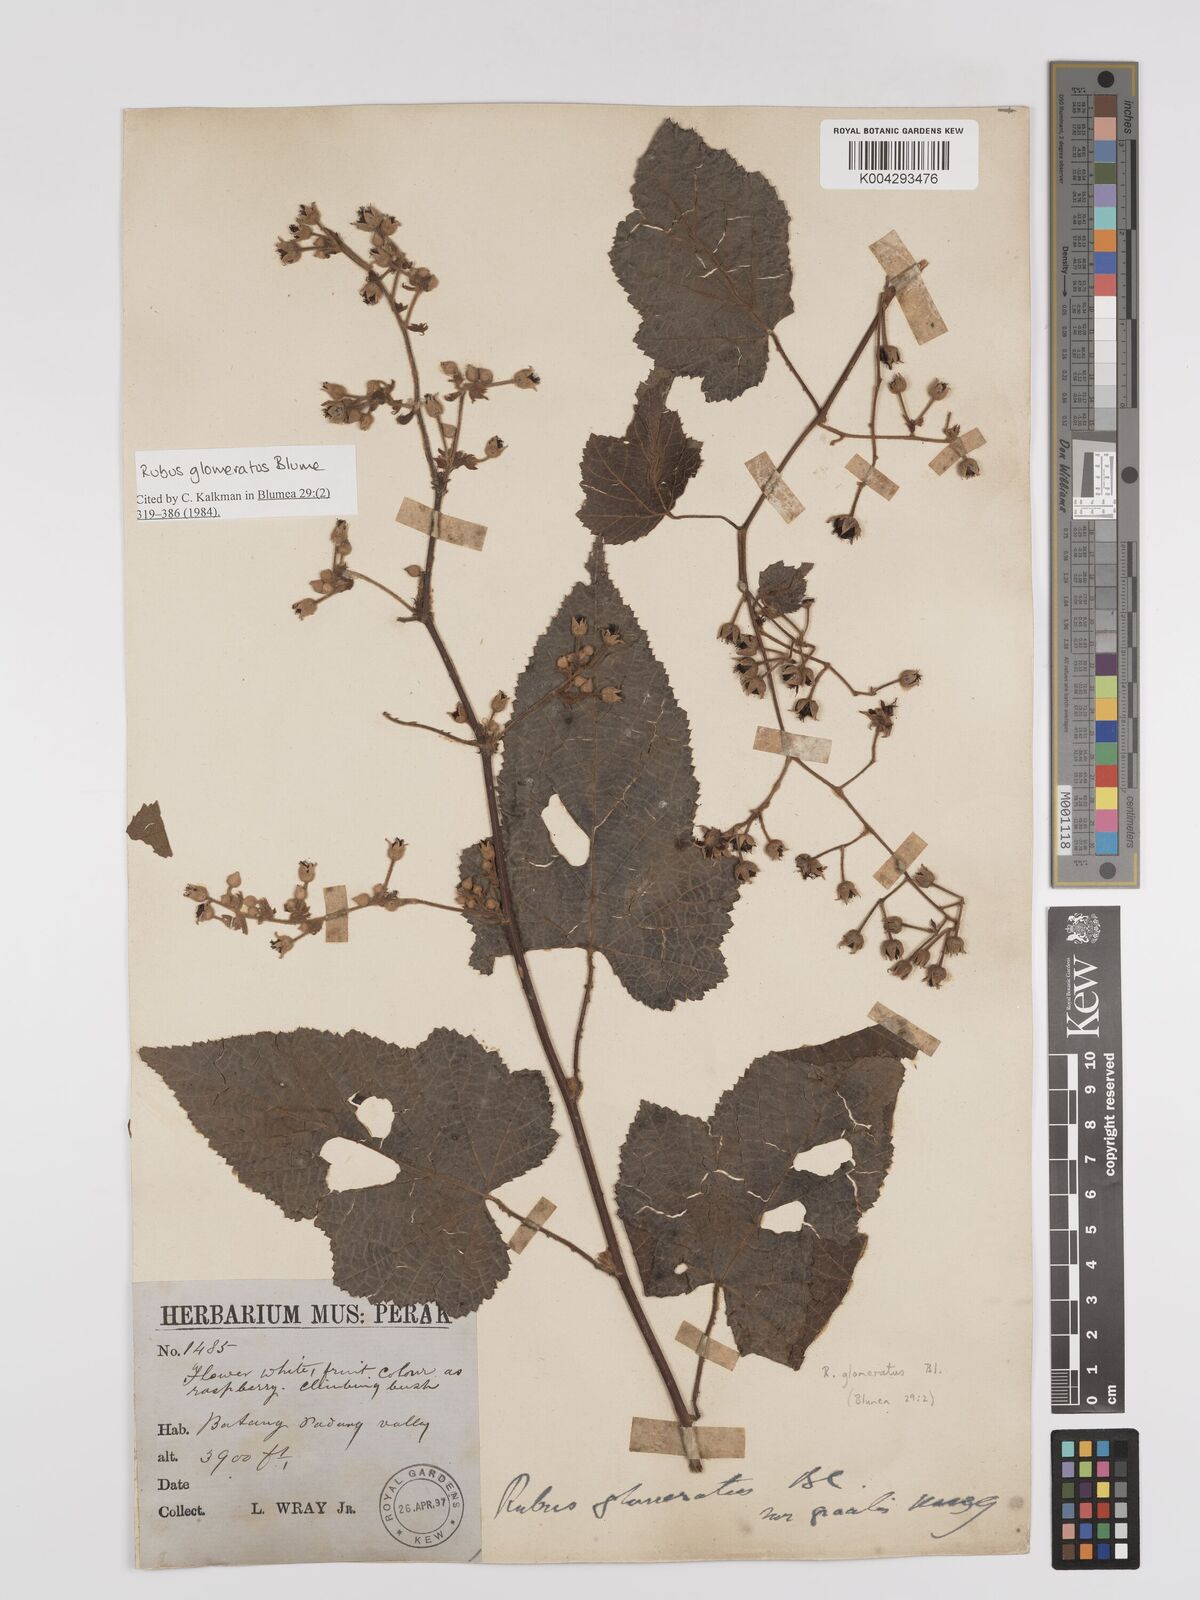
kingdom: Plantae
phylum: Tracheophyta
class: Magnoliopsida
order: Rosales
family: Rosaceae
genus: Rubus
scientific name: Rubus
